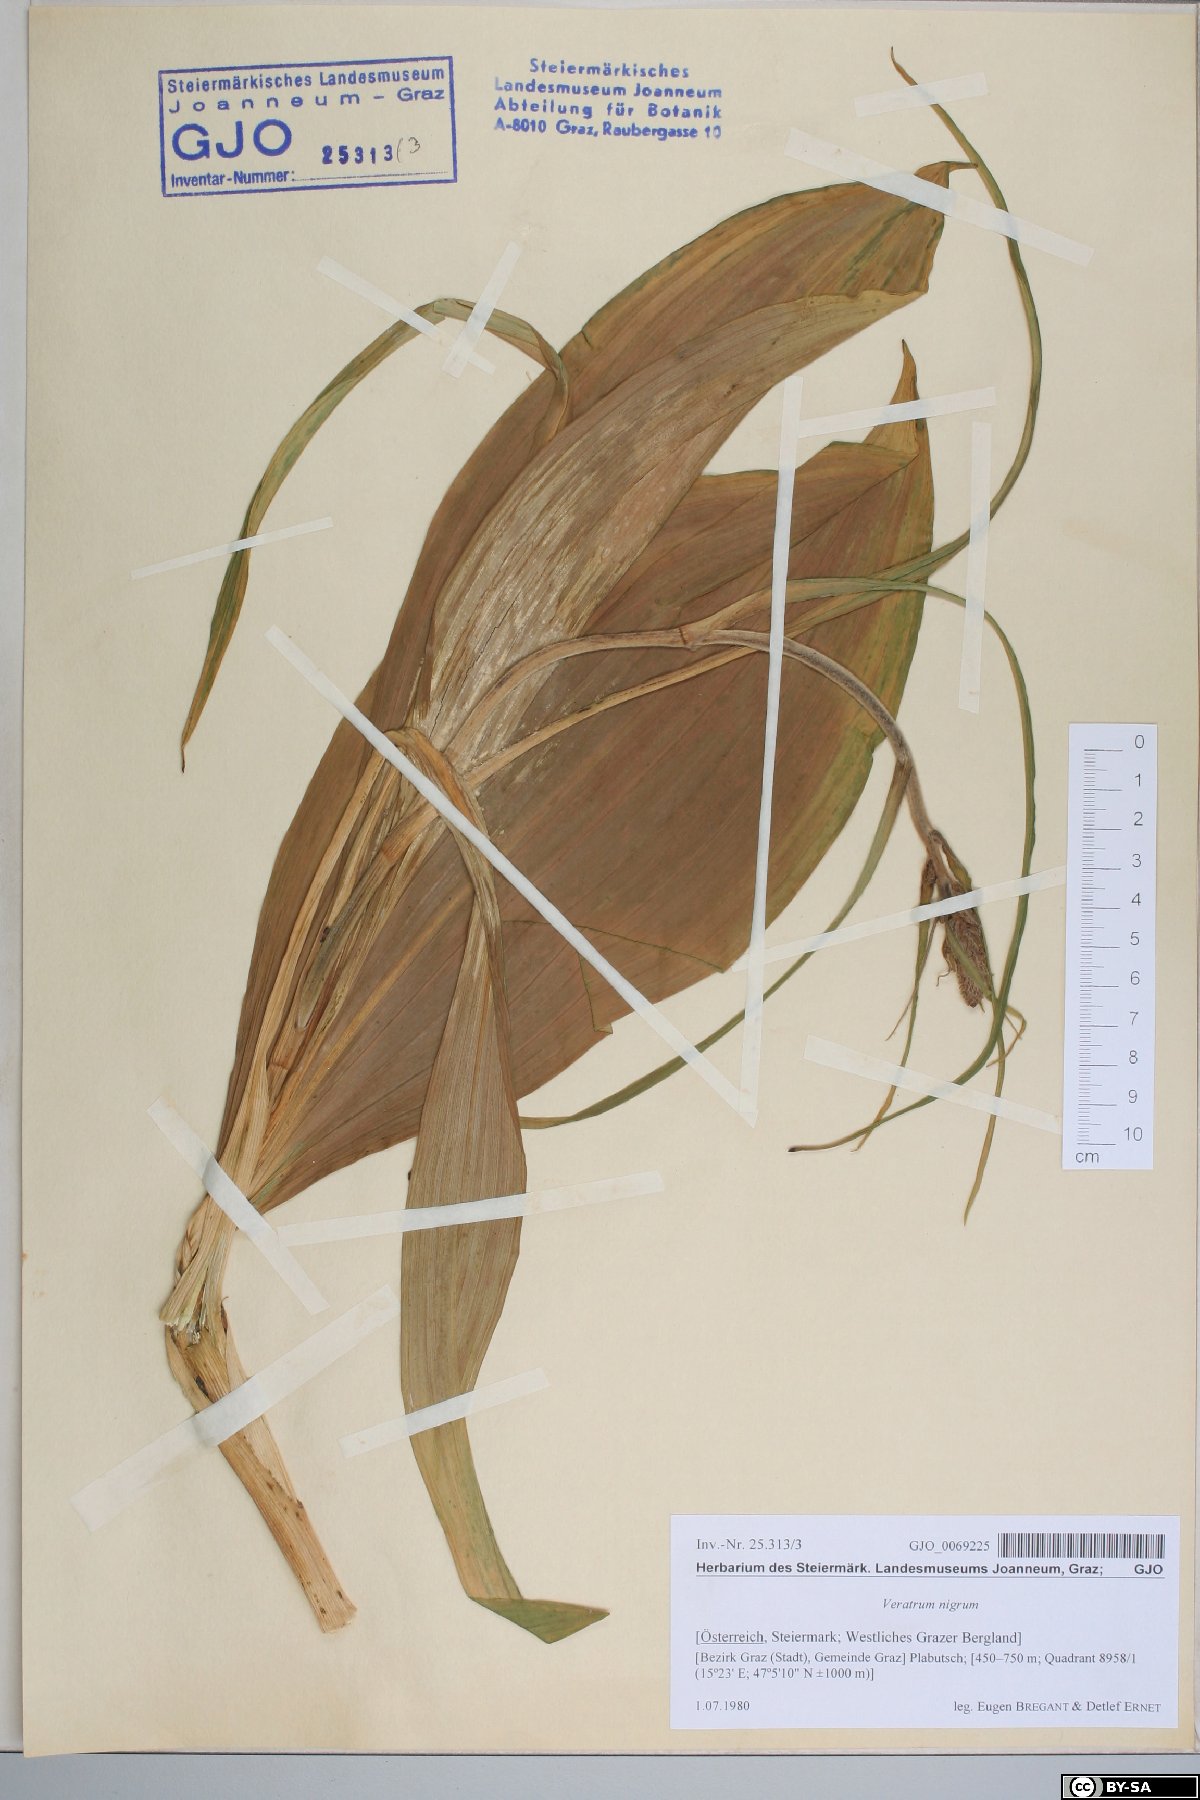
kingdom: Plantae
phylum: Tracheophyta
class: Liliopsida
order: Liliales
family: Melanthiaceae
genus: Veratrum
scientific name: Veratrum nigrum
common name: Black veratrum
